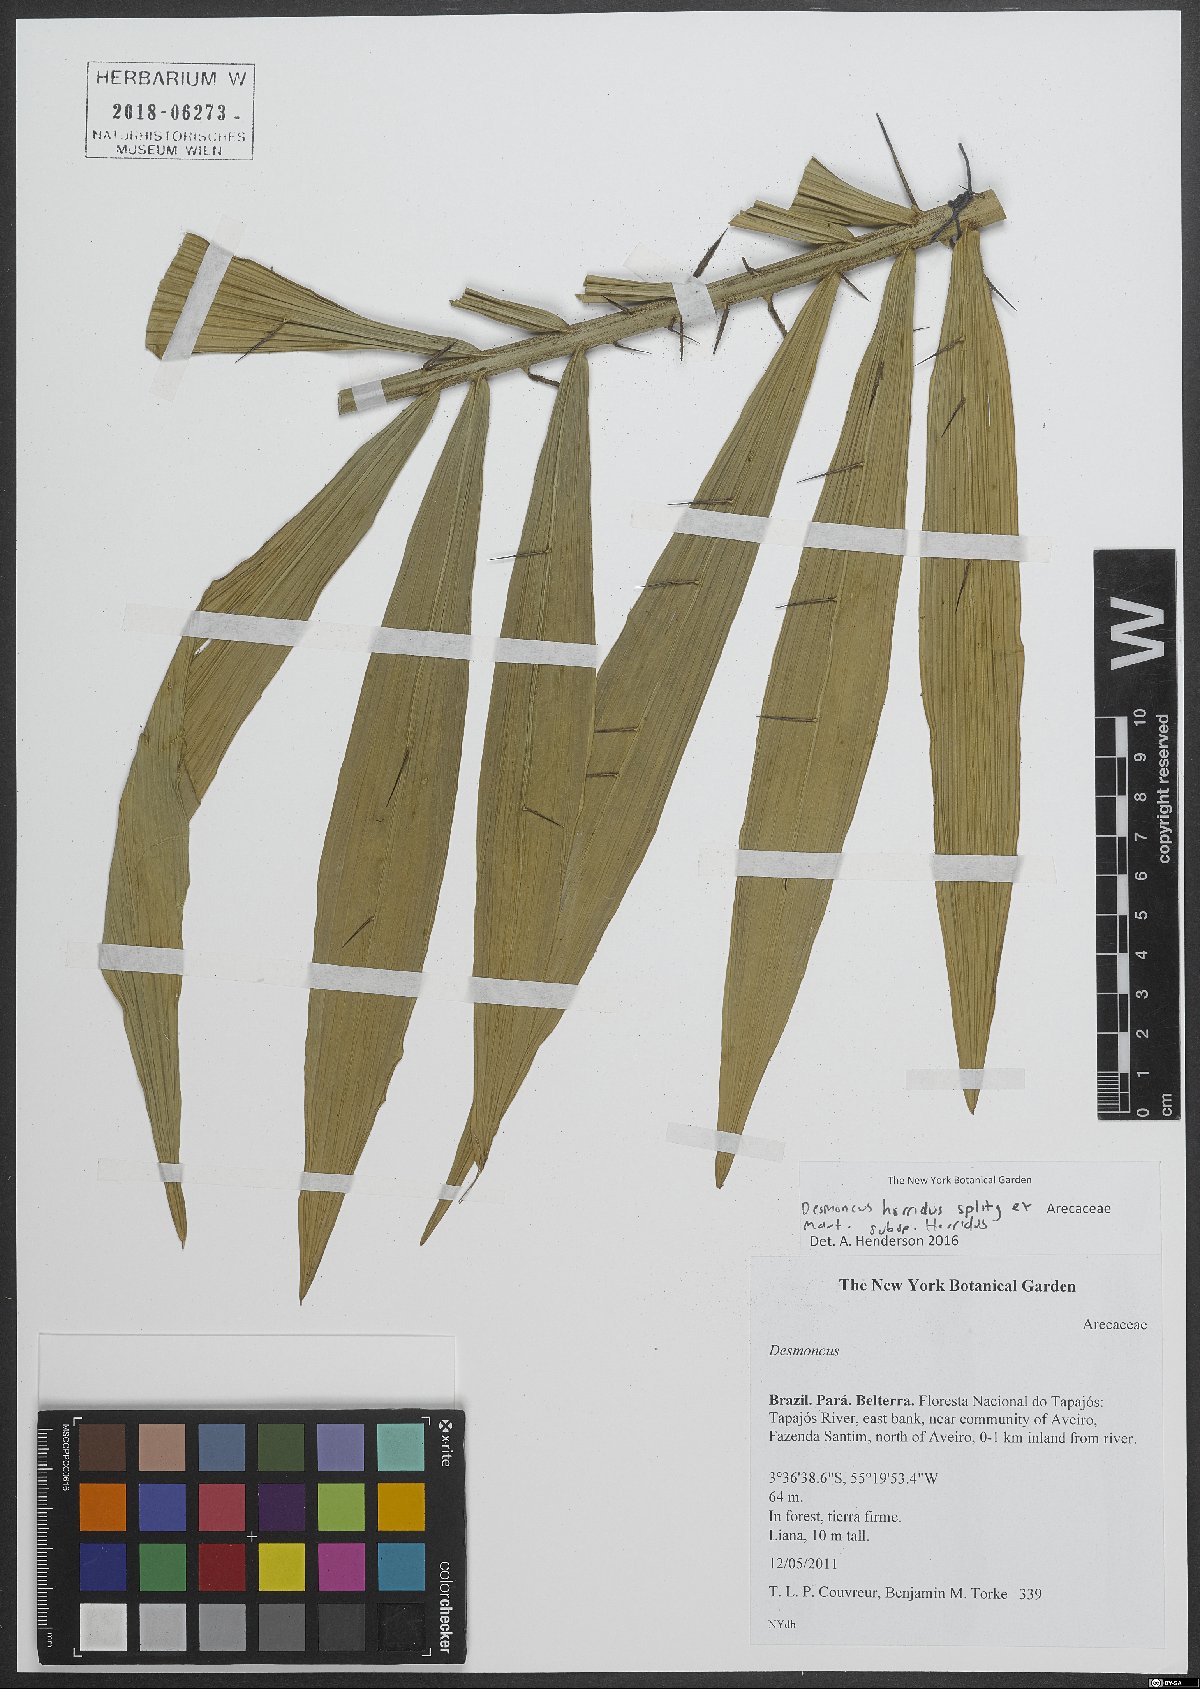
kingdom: Plantae
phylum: Tracheophyta
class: Liliopsida
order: Arecales
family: Arecaceae
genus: Desmoncus
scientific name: Desmoncus horridus
